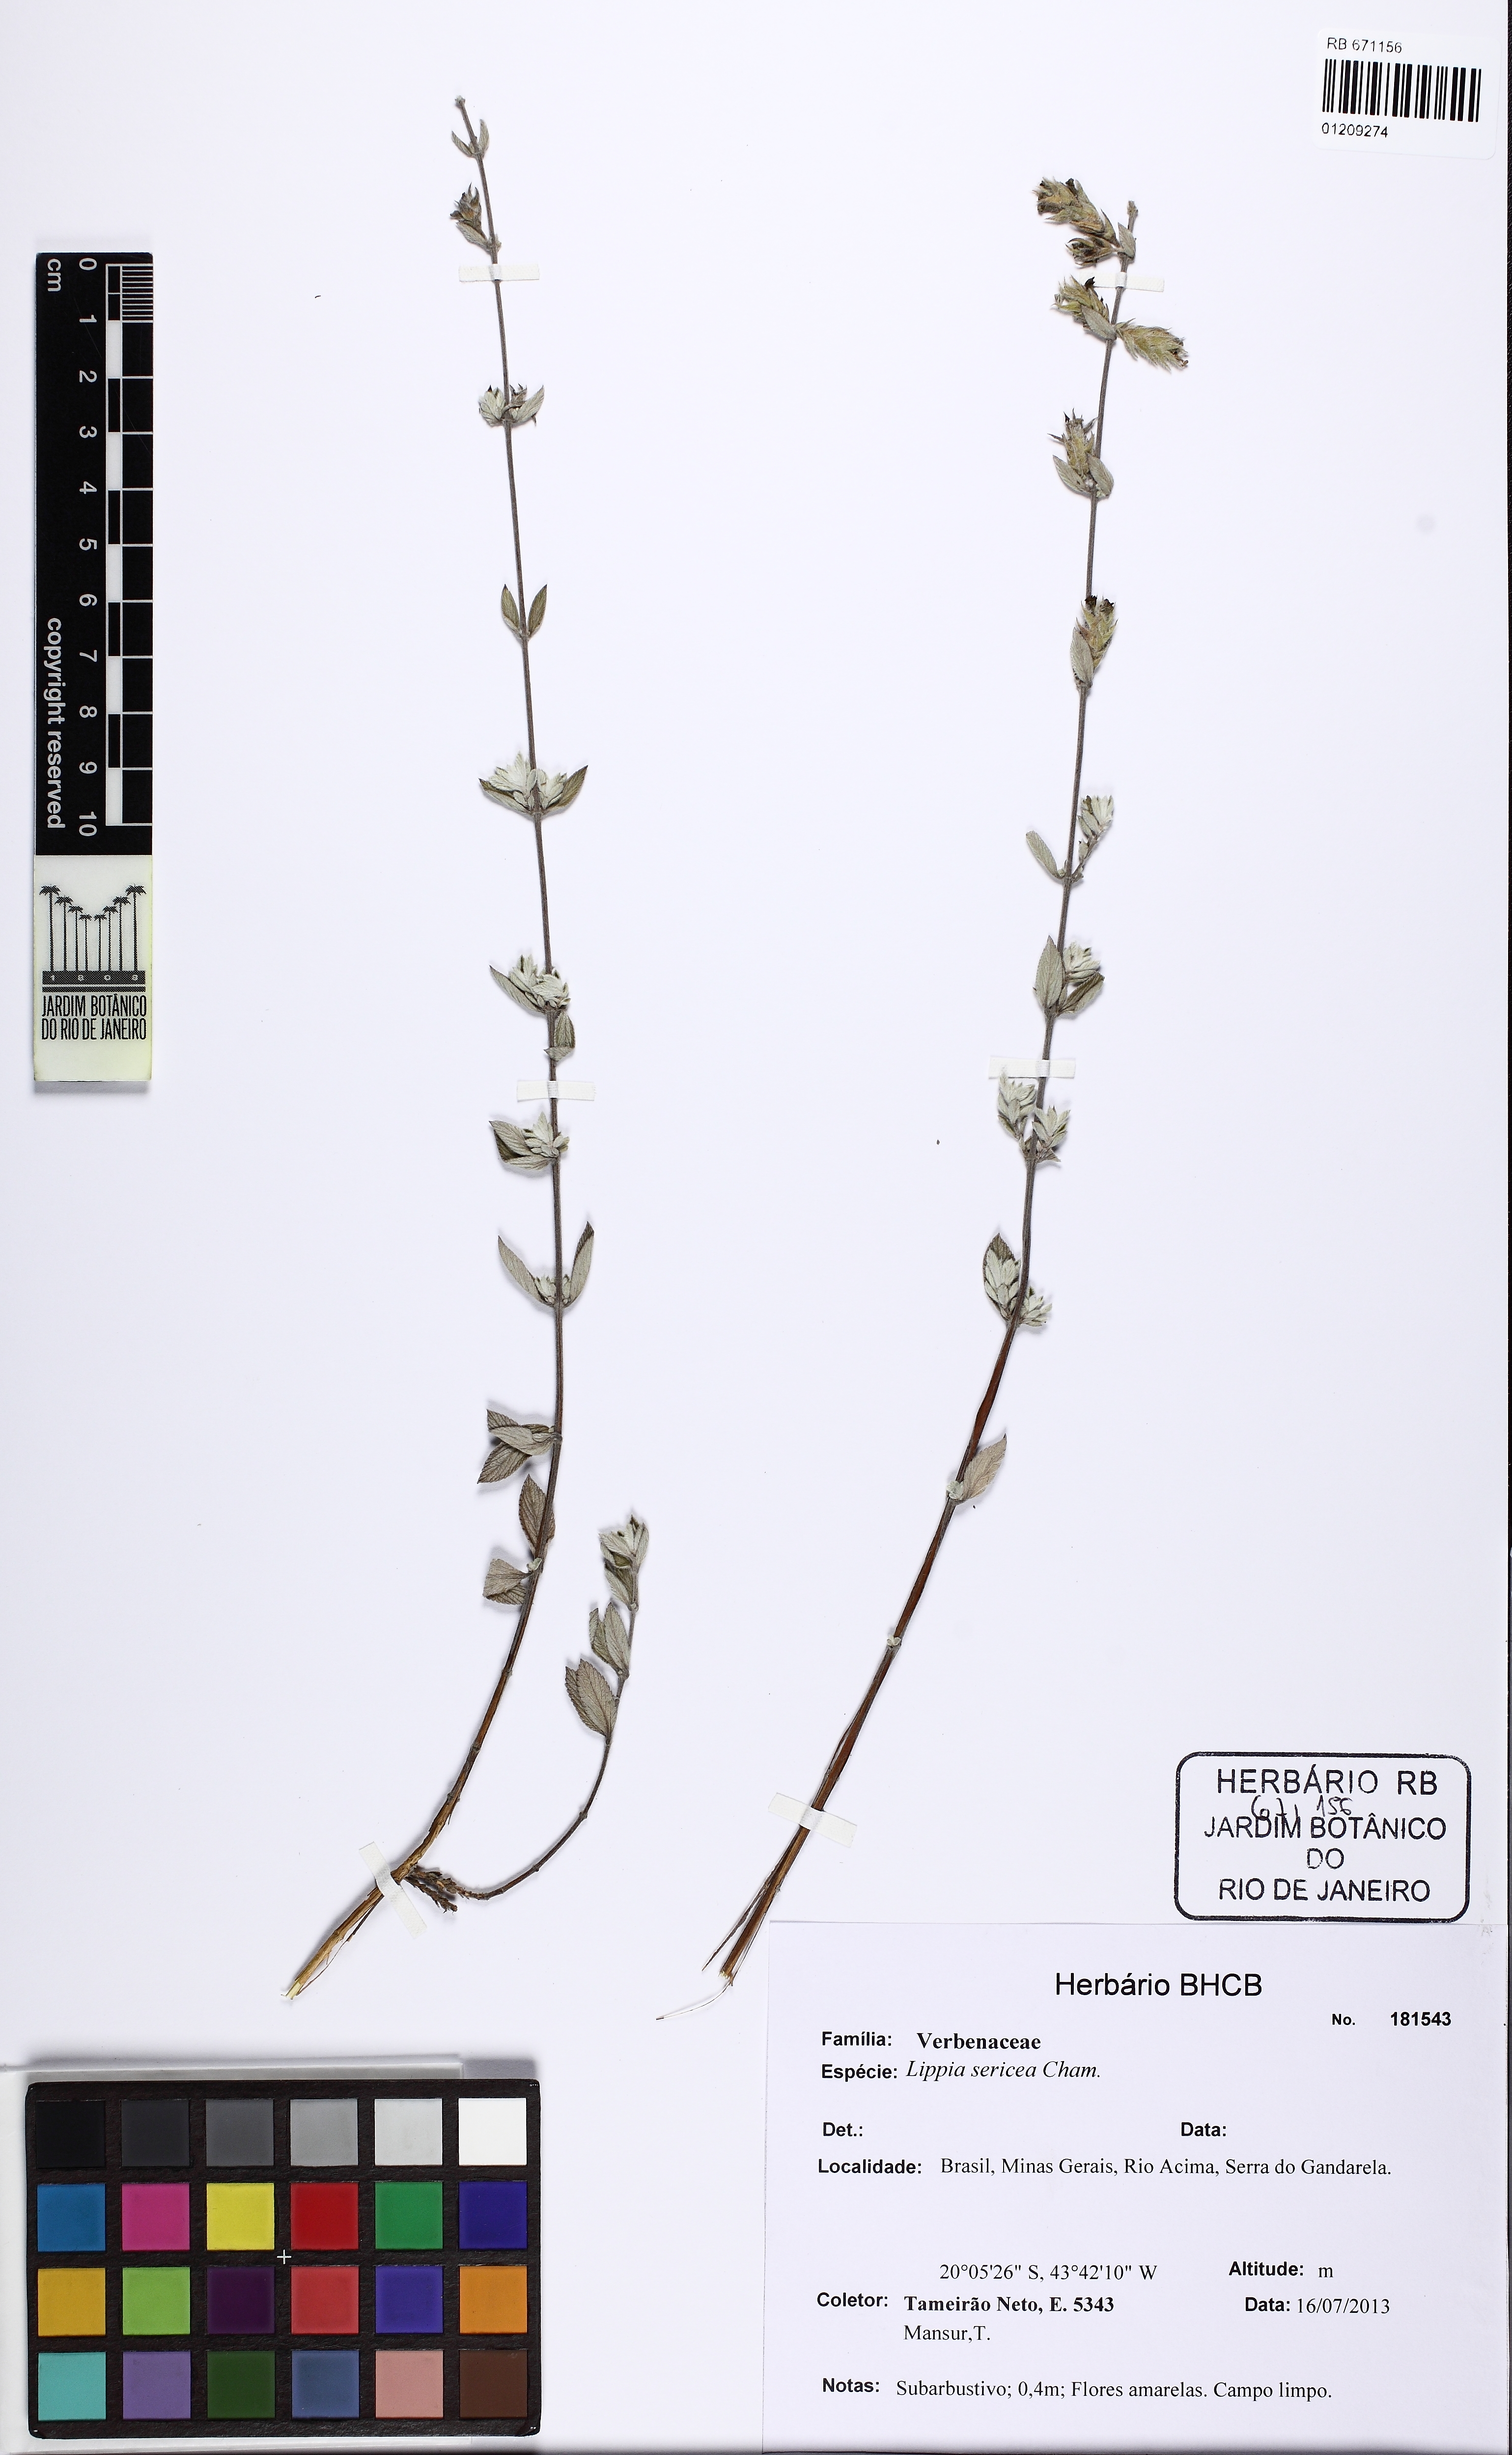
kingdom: Plantae
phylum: Tracheophyta
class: Magnoliopsida
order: Lamiales
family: Verbenaceae
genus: Lippia
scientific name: Lippia sericea
